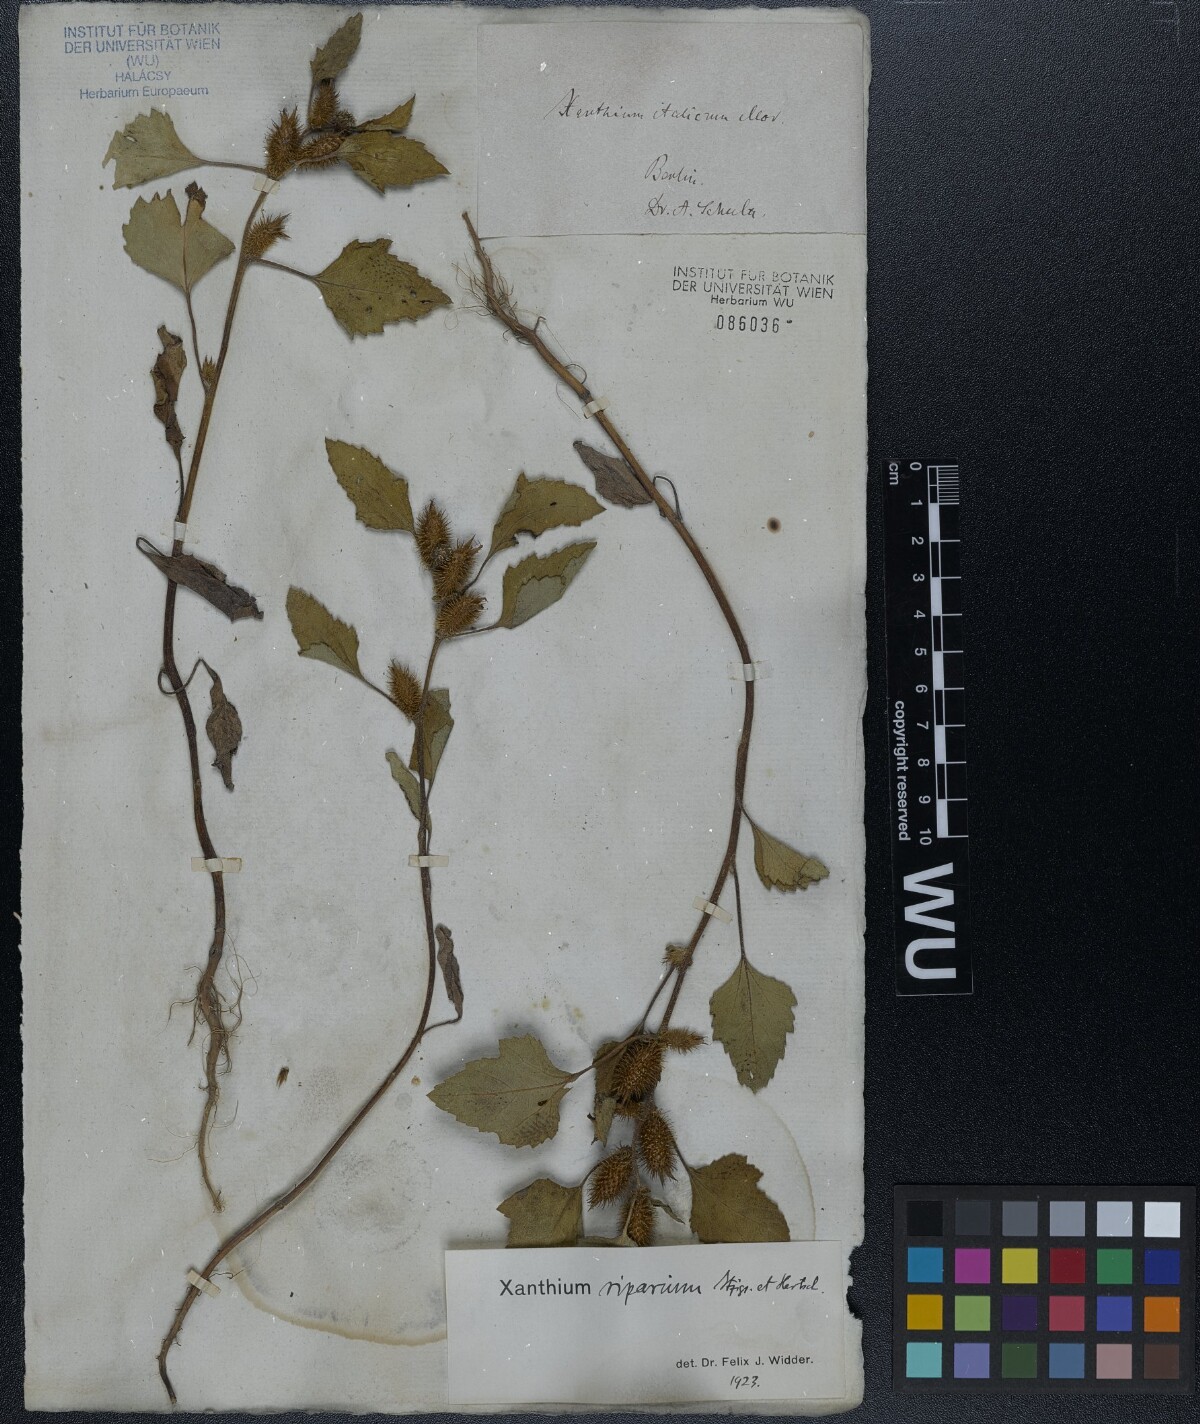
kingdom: Plantae
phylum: Tracheophyta
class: Magnoliopsida
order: Asterales
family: Asteraceae
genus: Xanthium
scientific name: Xanthium orientale
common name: Californian burr
